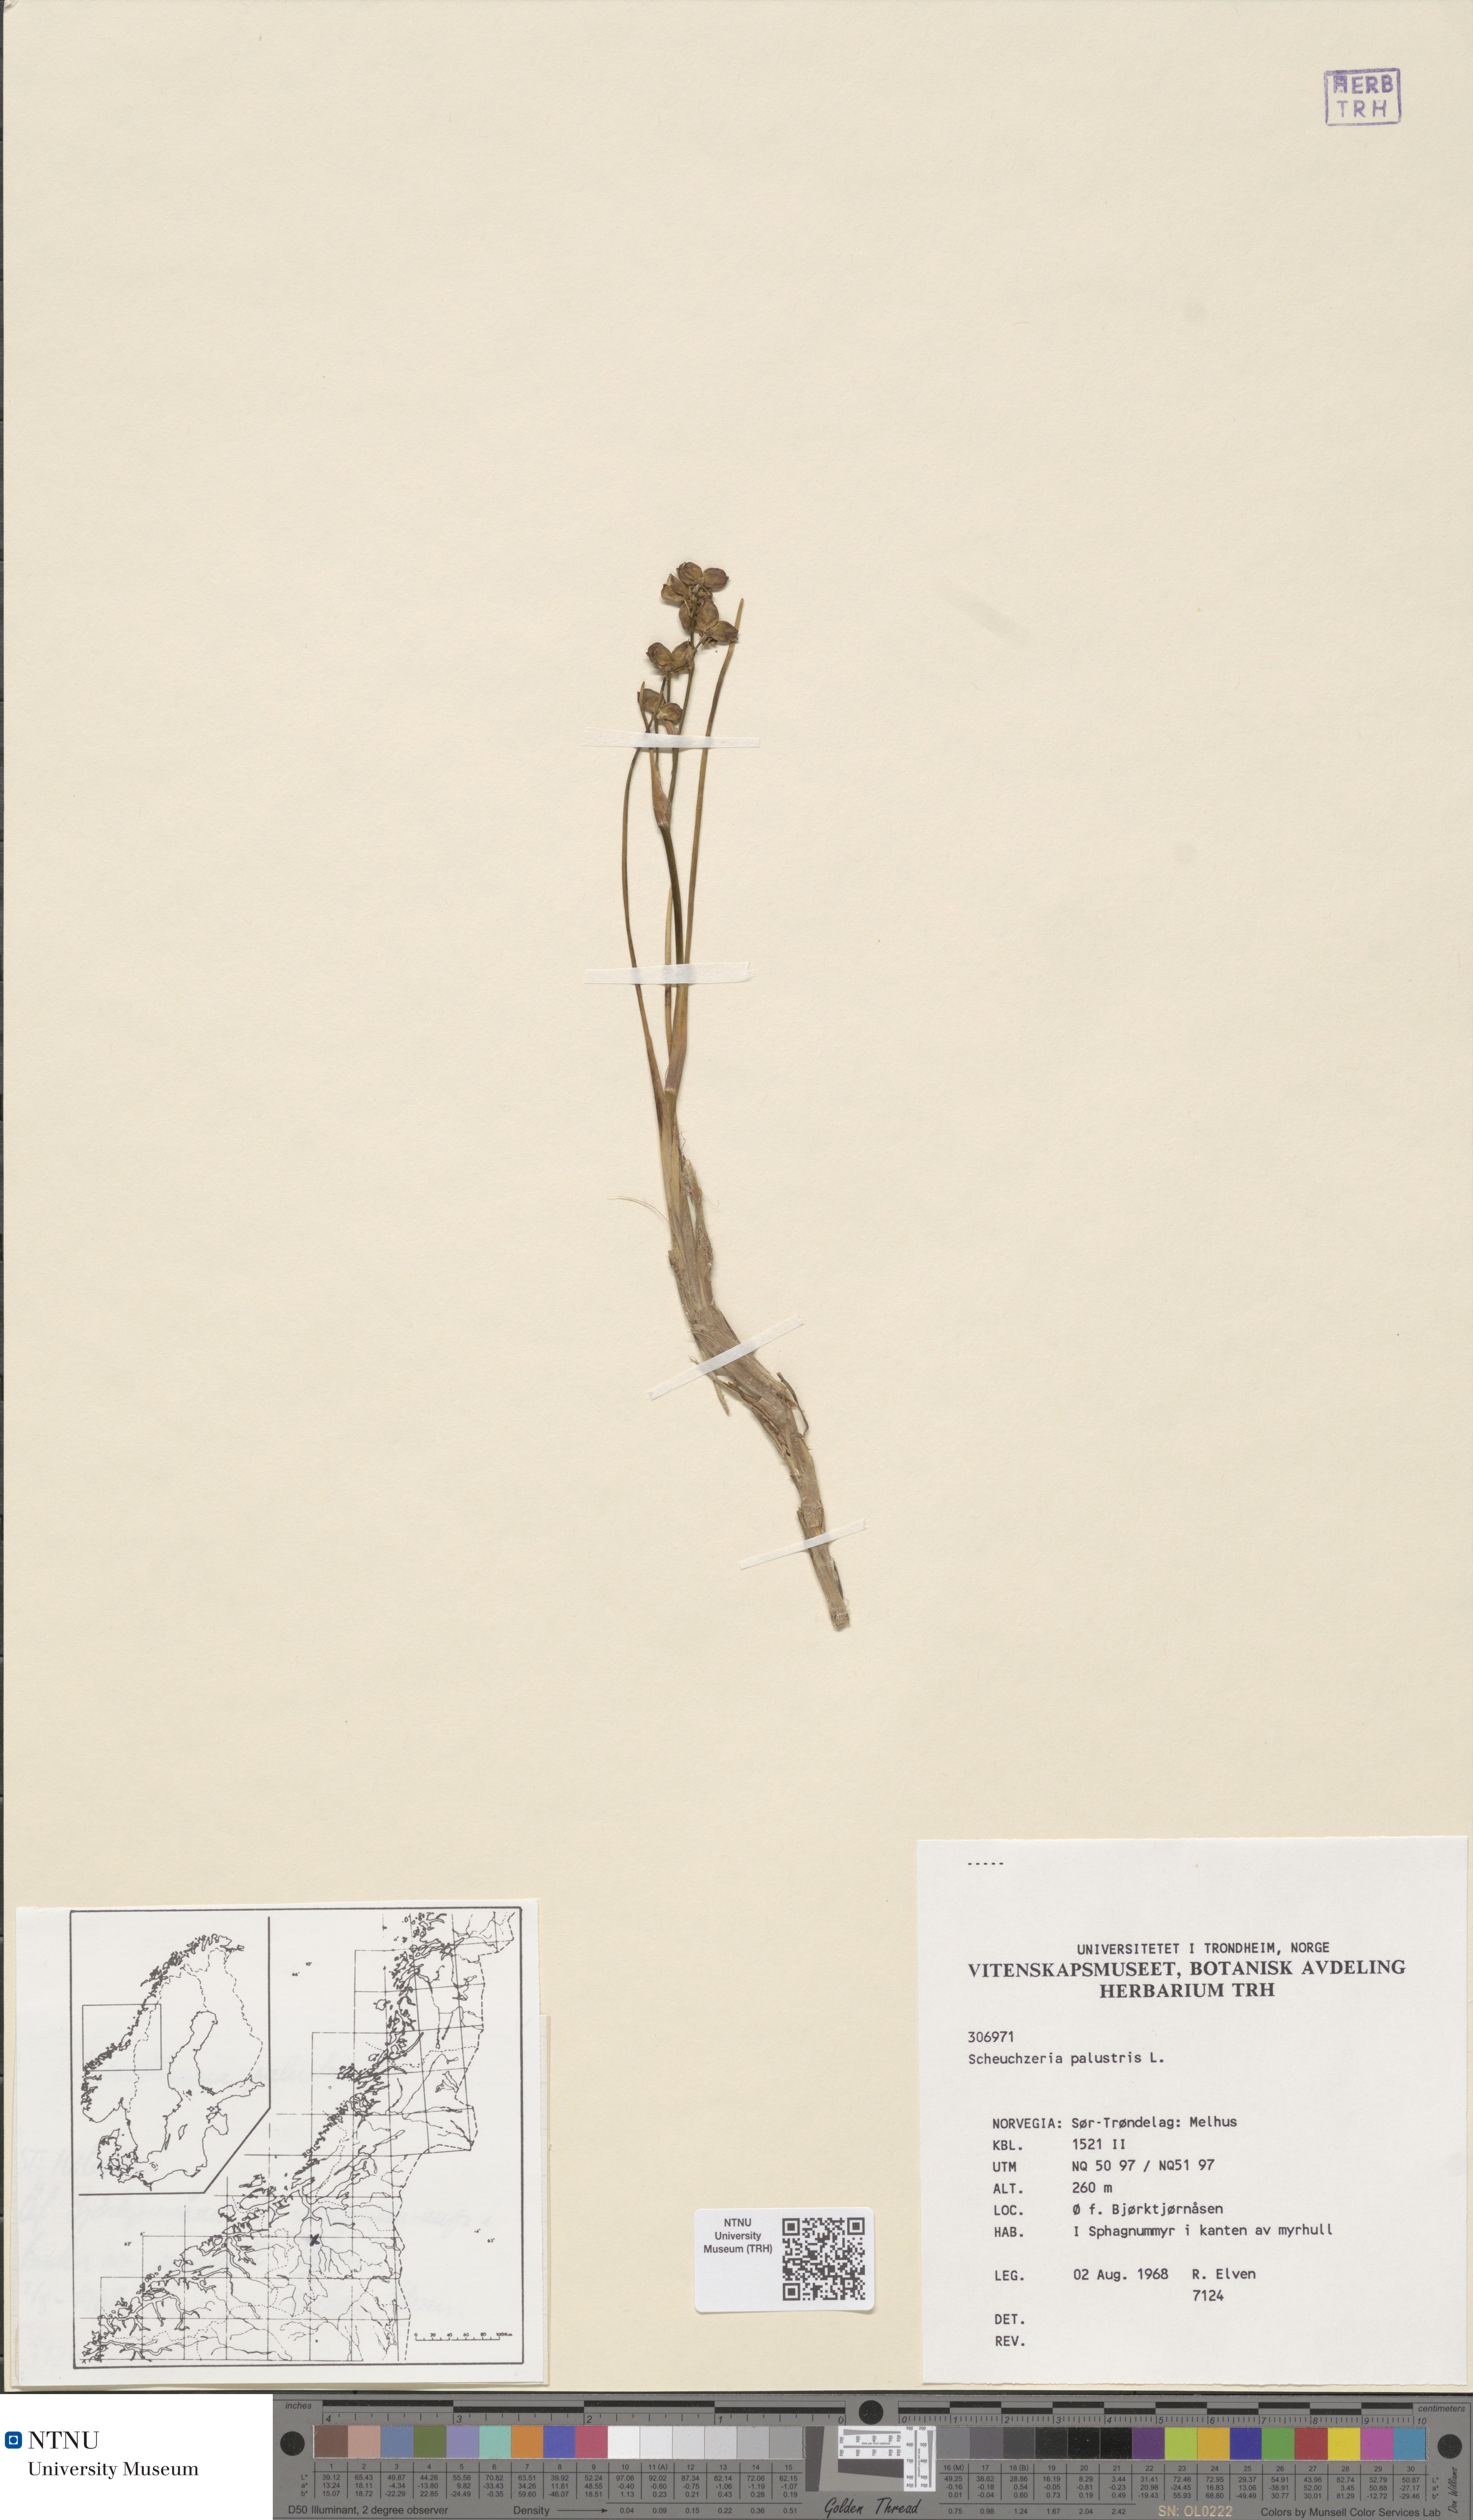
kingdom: Plantae
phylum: Tracheophyta
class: Liliopsida
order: Alismatales
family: Scheuchzeriaceae
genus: Scheuchzeria
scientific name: Scheuchzeria palustris
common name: Rannoch-rush
